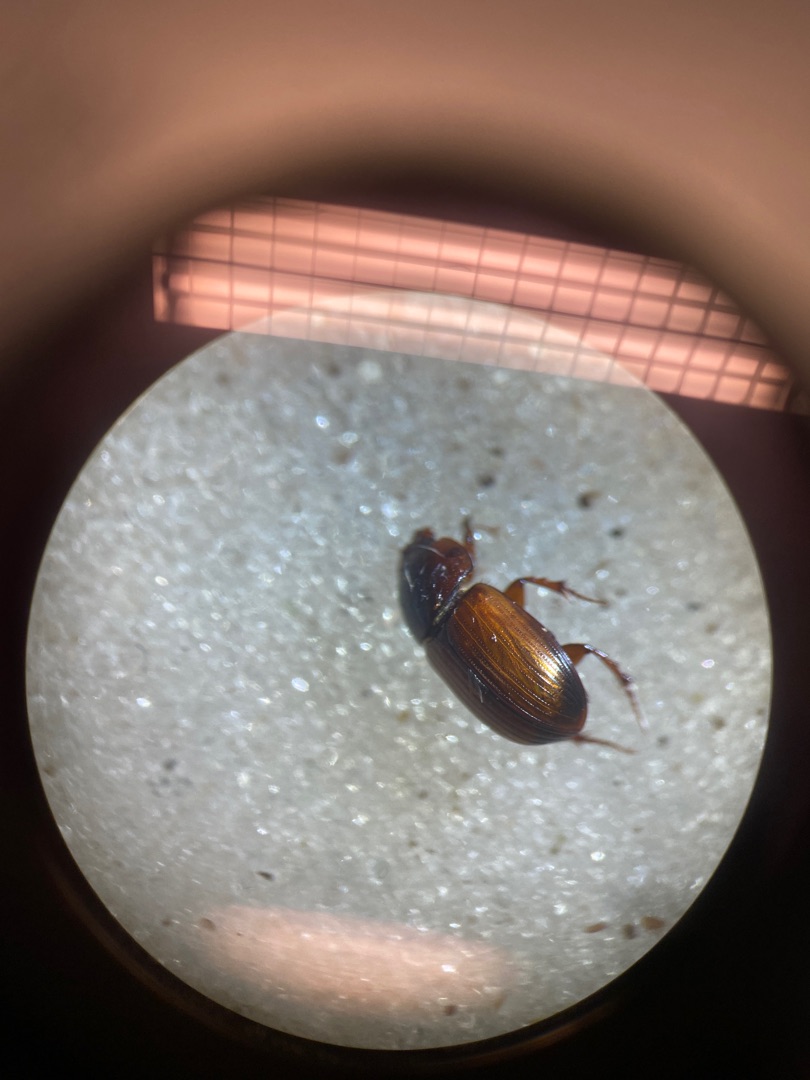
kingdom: Animalia
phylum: Arthropoda
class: Insecta
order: Coleoptera
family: Scarabaeidae
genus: Bodilopsis
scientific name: Bodilopsis rufus
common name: Mahognibrun møgbille
